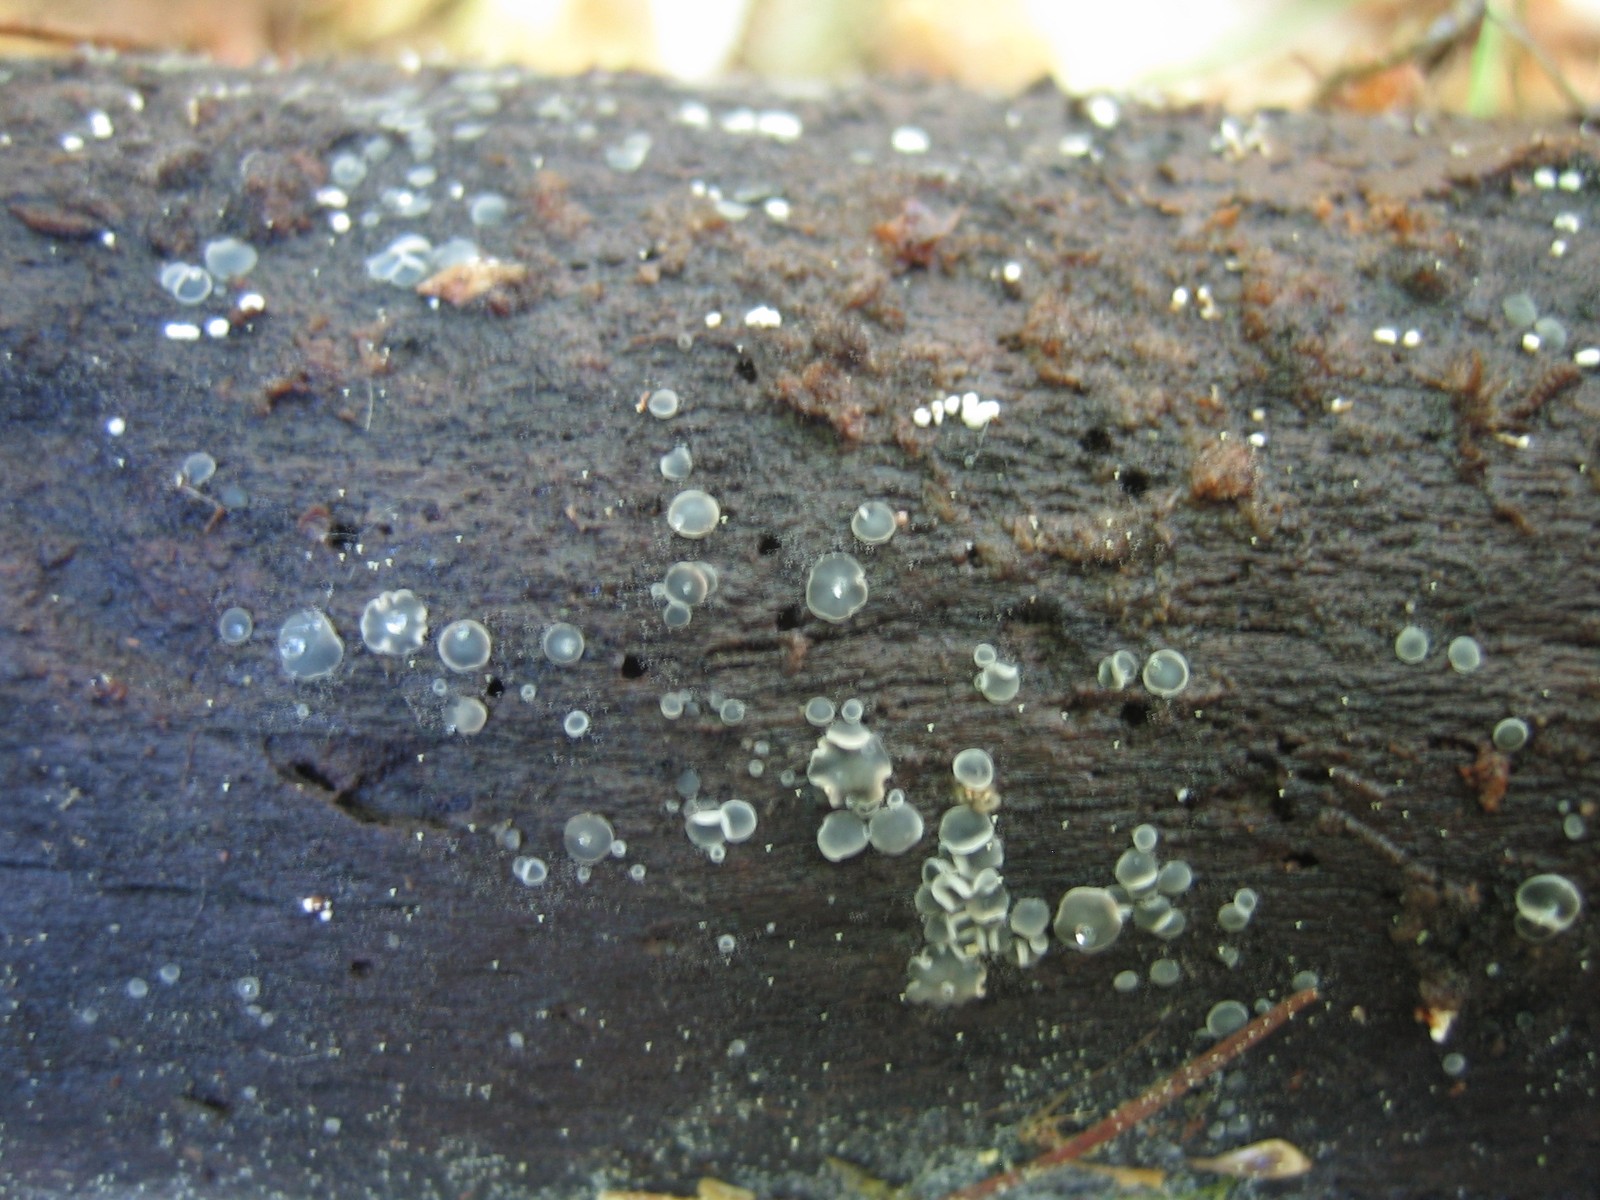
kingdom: Fungi
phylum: Ascomycota
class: Leotiomycetes
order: Helotiales
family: Dermateaceae
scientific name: Dermateaceae
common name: gråskivefamilien
